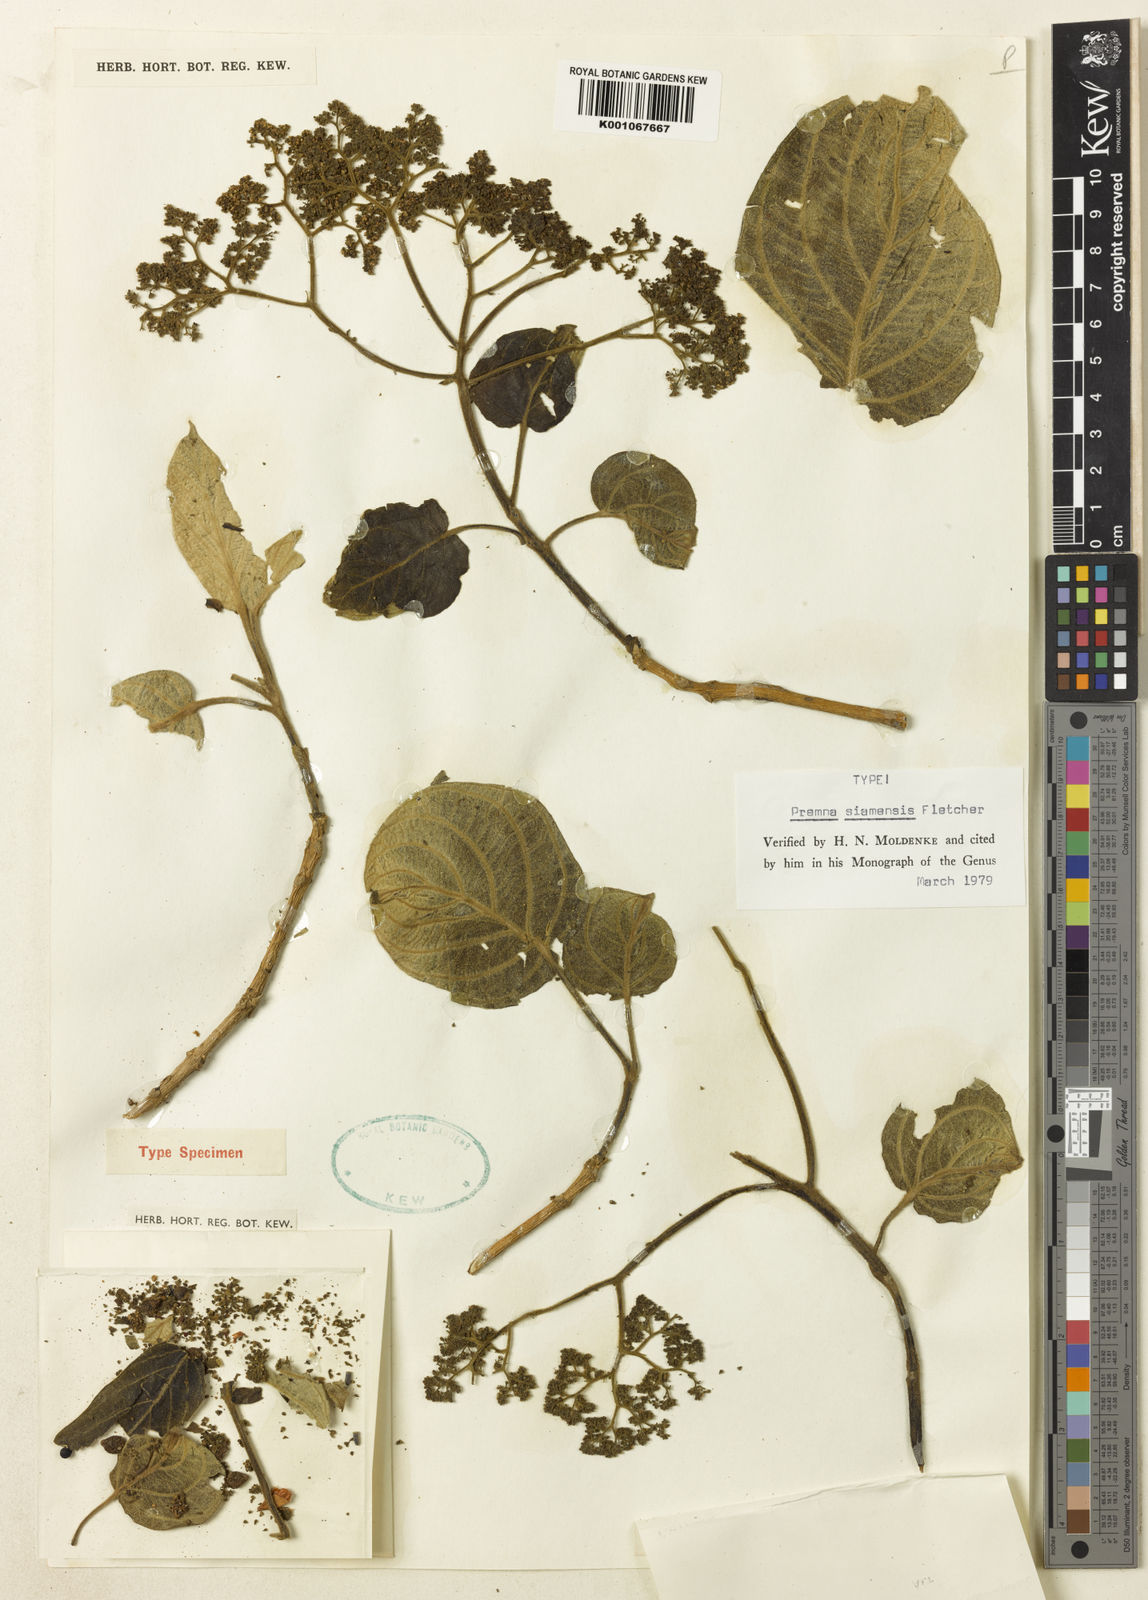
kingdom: Plantae
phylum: Tracheophyta
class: Magnoliopsida
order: Lamiales
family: Lamiaceae
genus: Premna
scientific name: Premna siamensis
